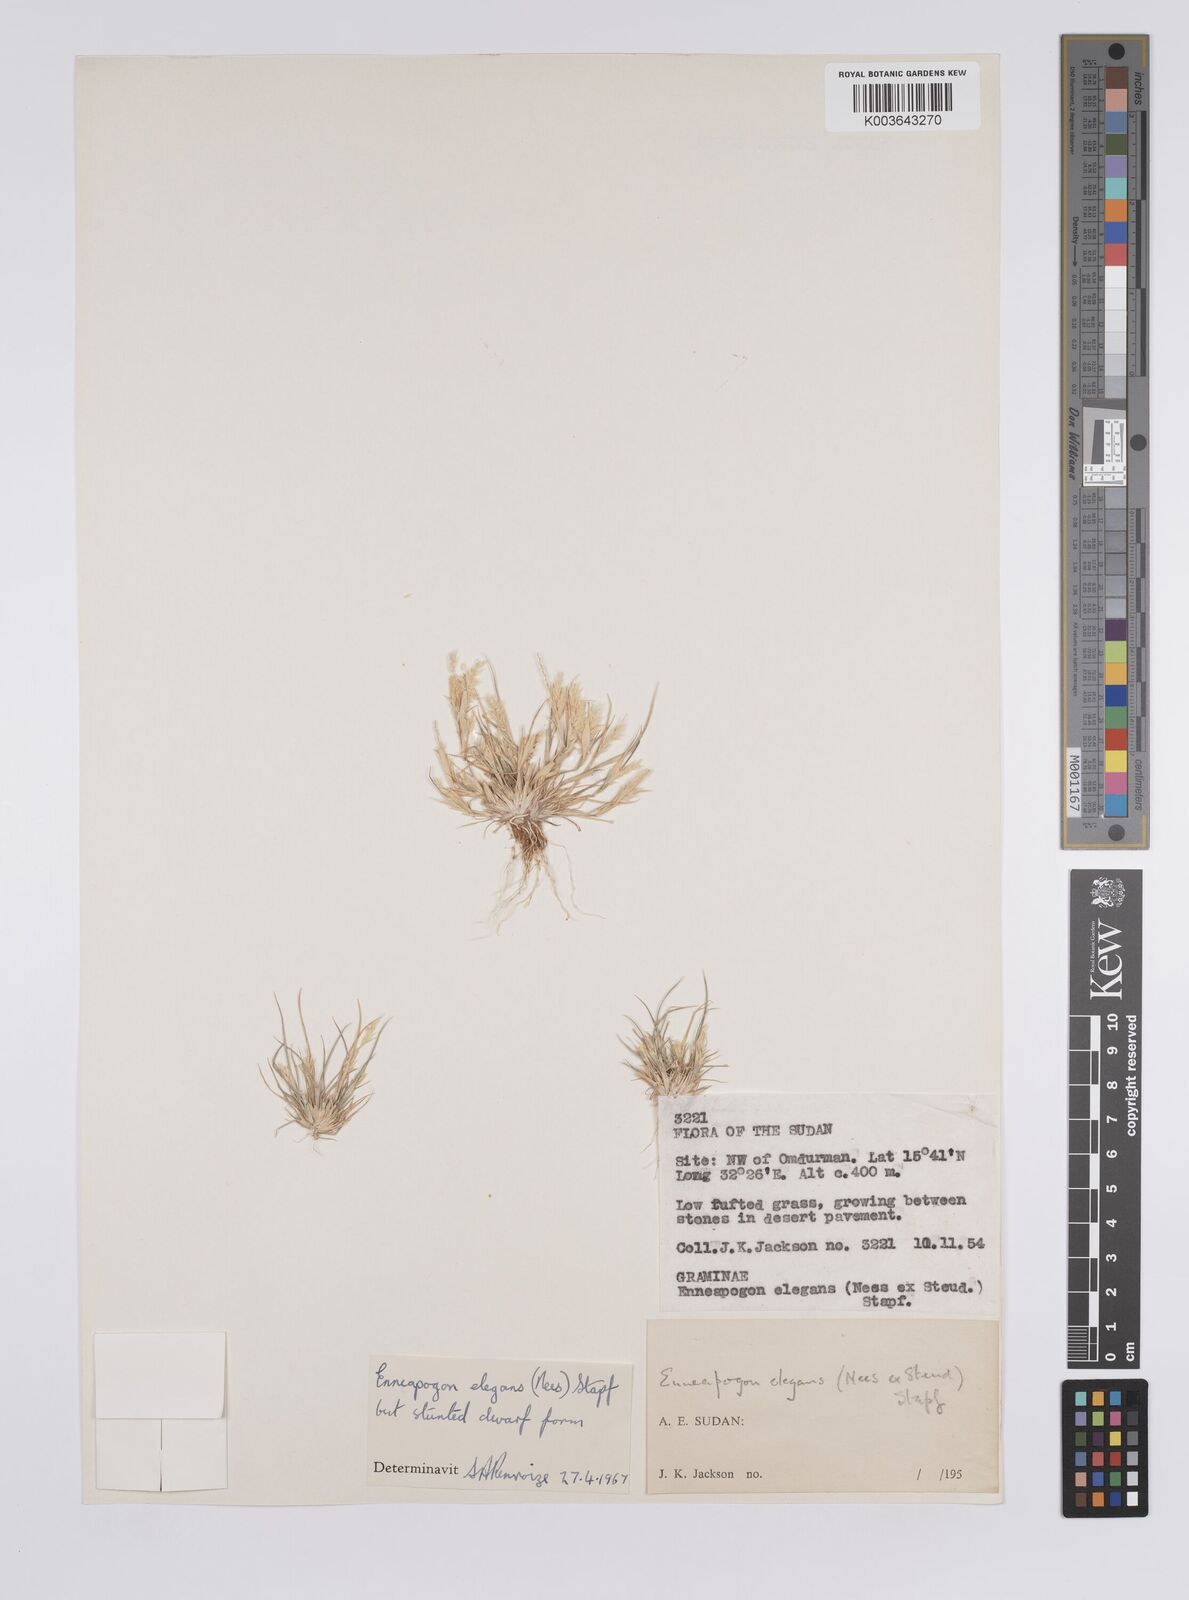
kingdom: Plantae
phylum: Tracheophyta
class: Liliopsida
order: Poales
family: Poaceae
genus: Enneapogon
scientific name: Enneapogon persicus
